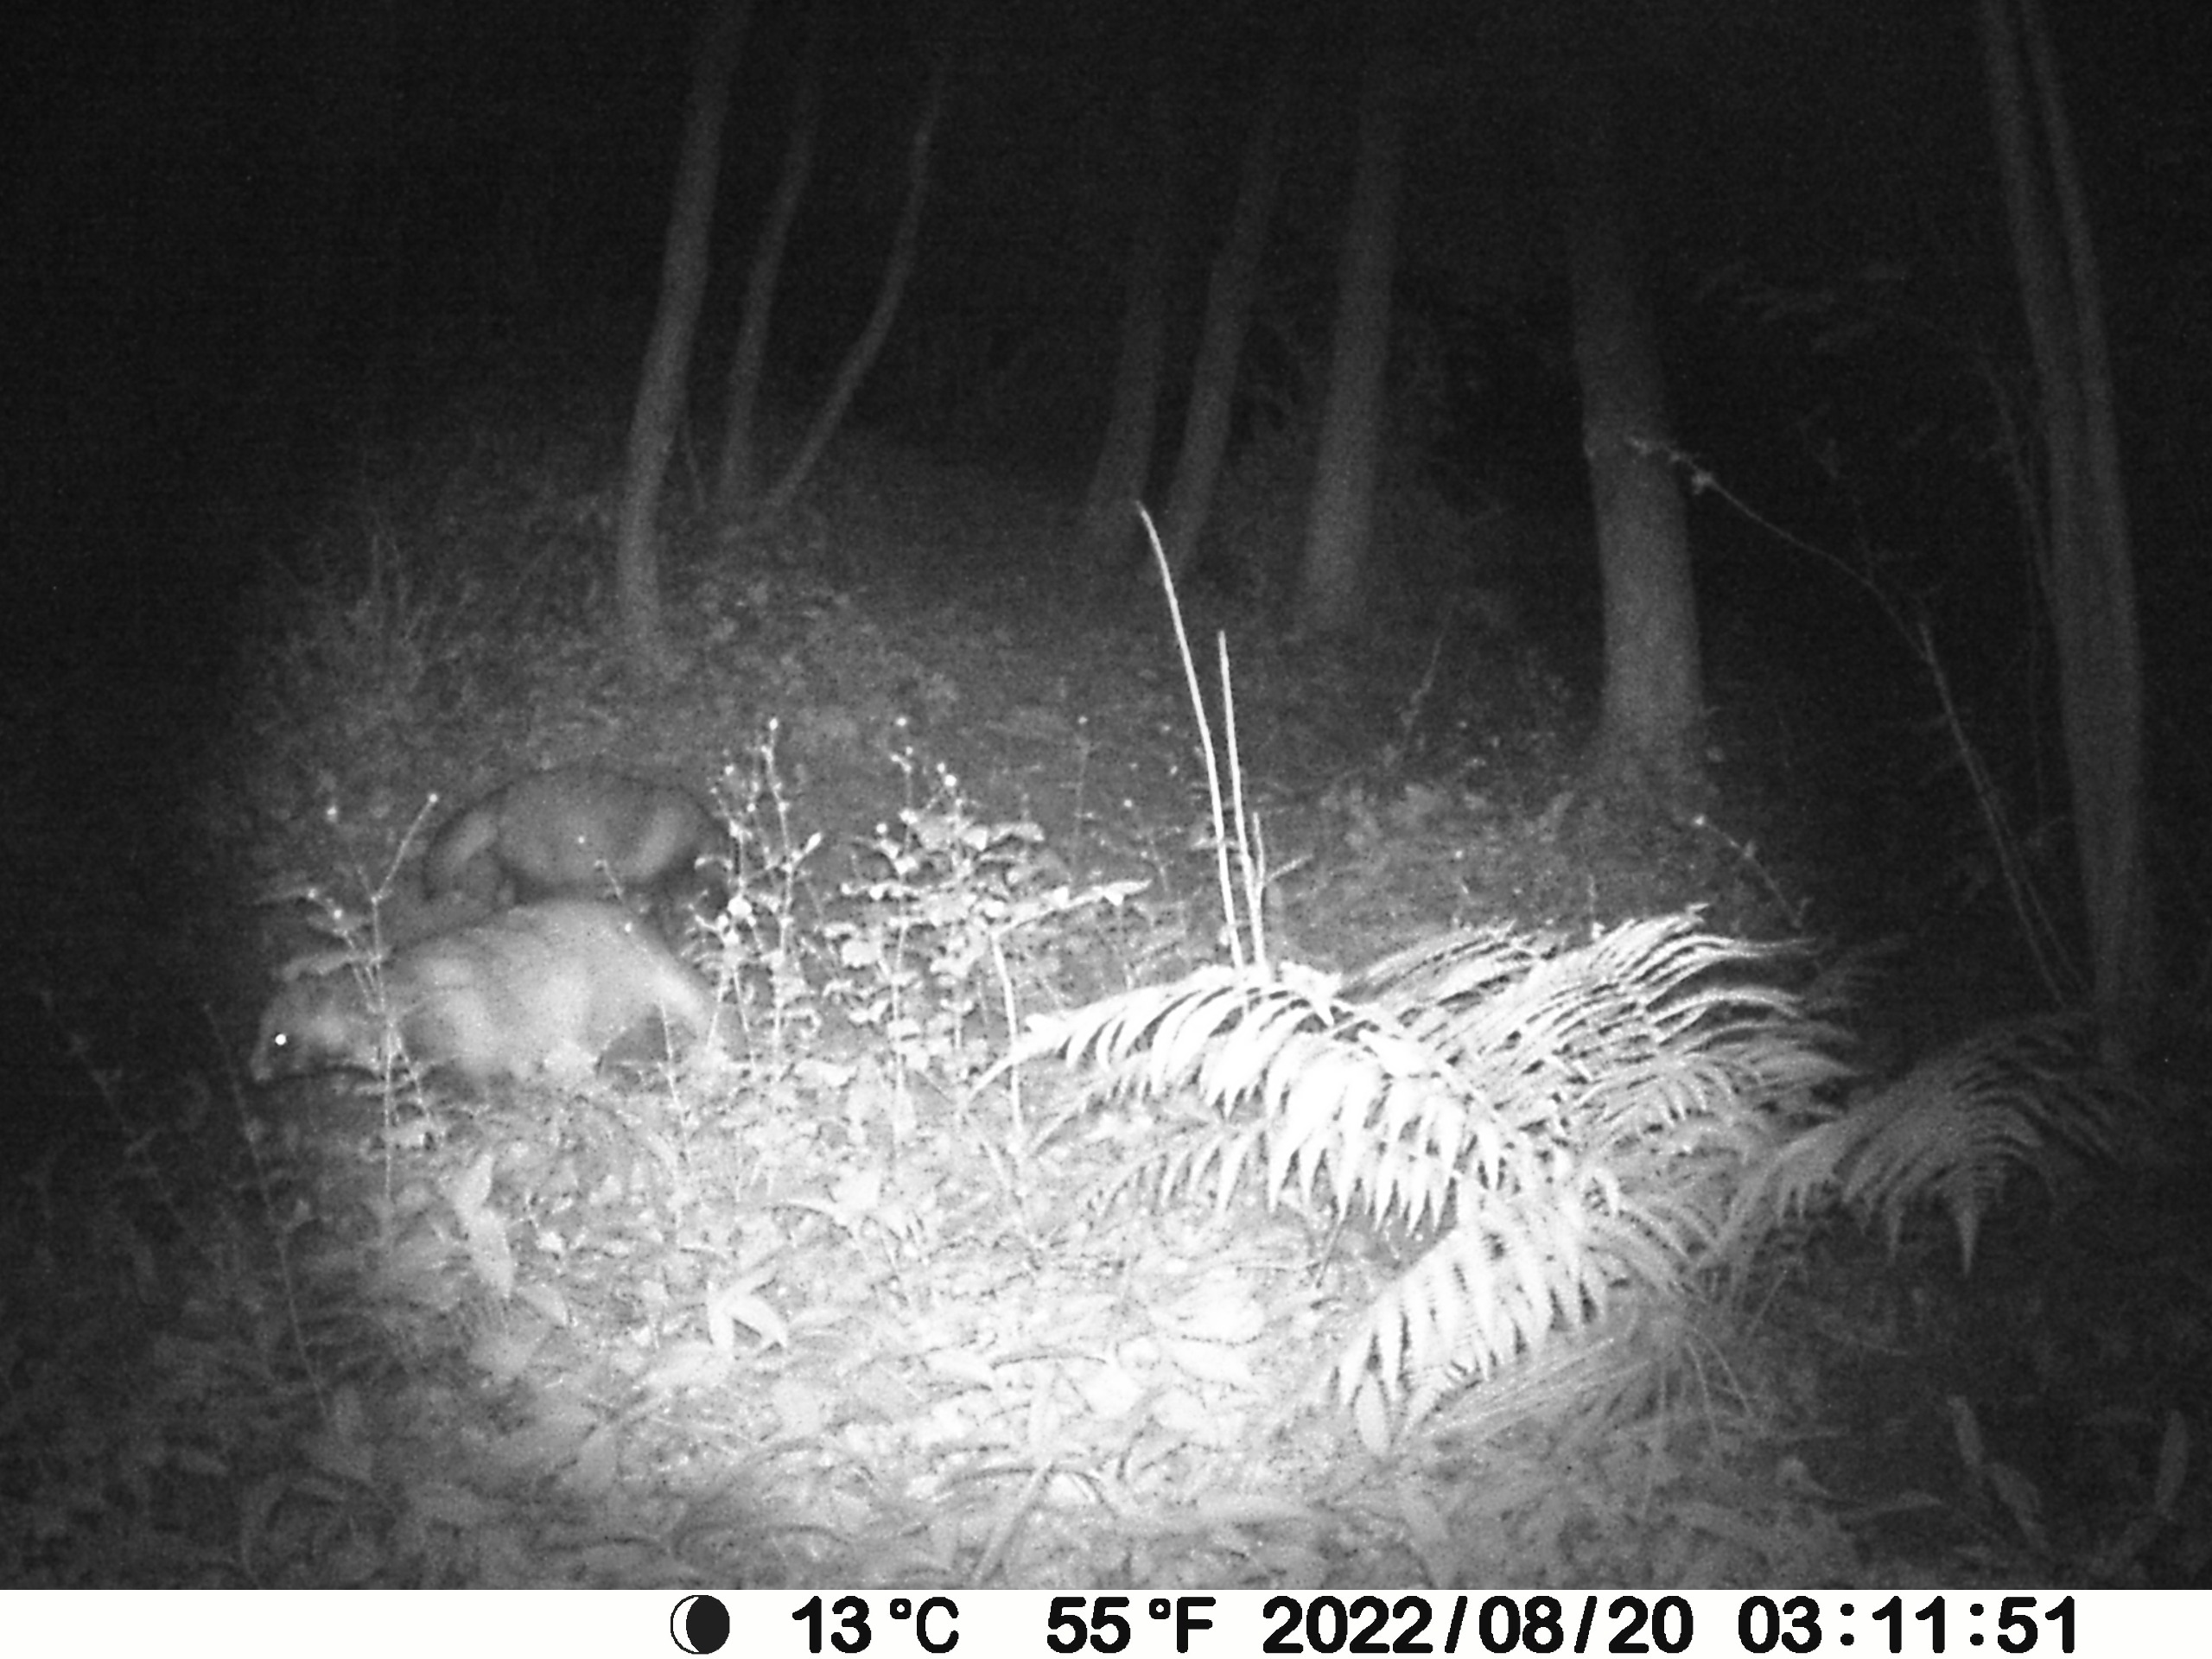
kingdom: Animalia
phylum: Chordata
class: Mammalia
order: Carnivora
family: Canidae
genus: Nyctereutes
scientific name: Nyctereutes procyonoides
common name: Mårhund
